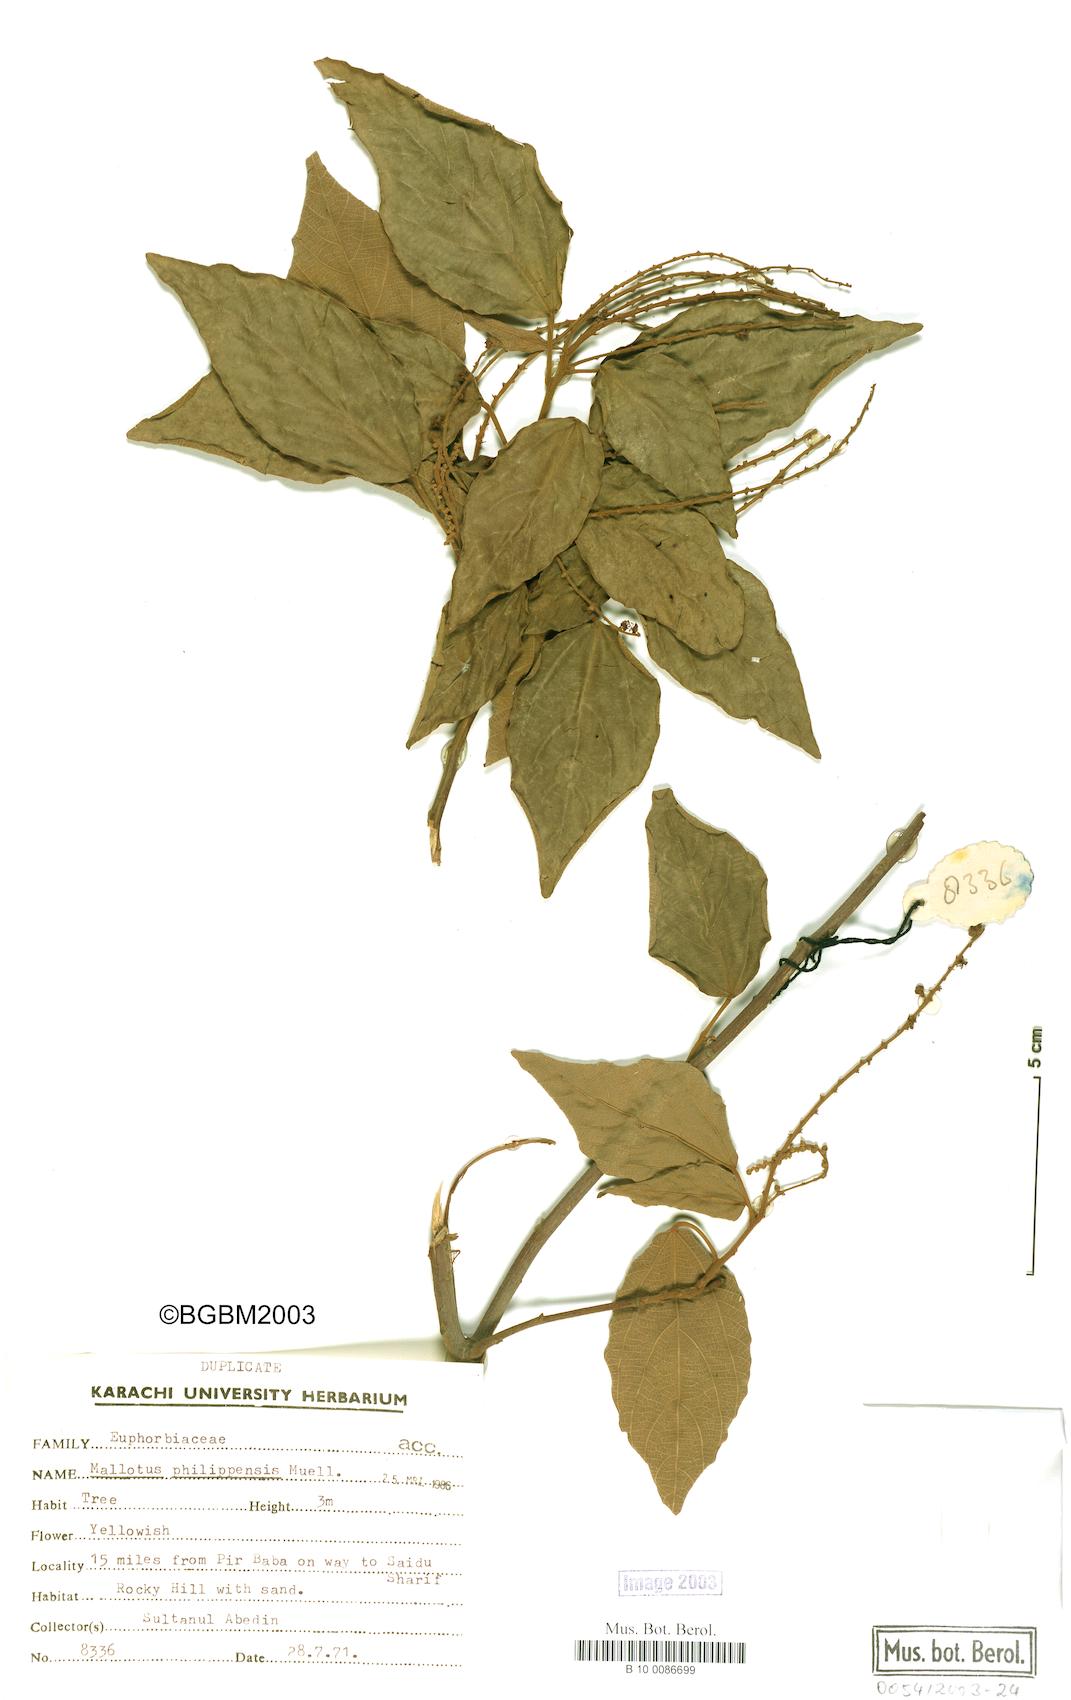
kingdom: Plantae
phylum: Tracheophyta
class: Magnoliopsida
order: Malpighiales
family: Euphorbiaceae
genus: Mallotus
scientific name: Mallotus philippensis
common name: Kamala tree
